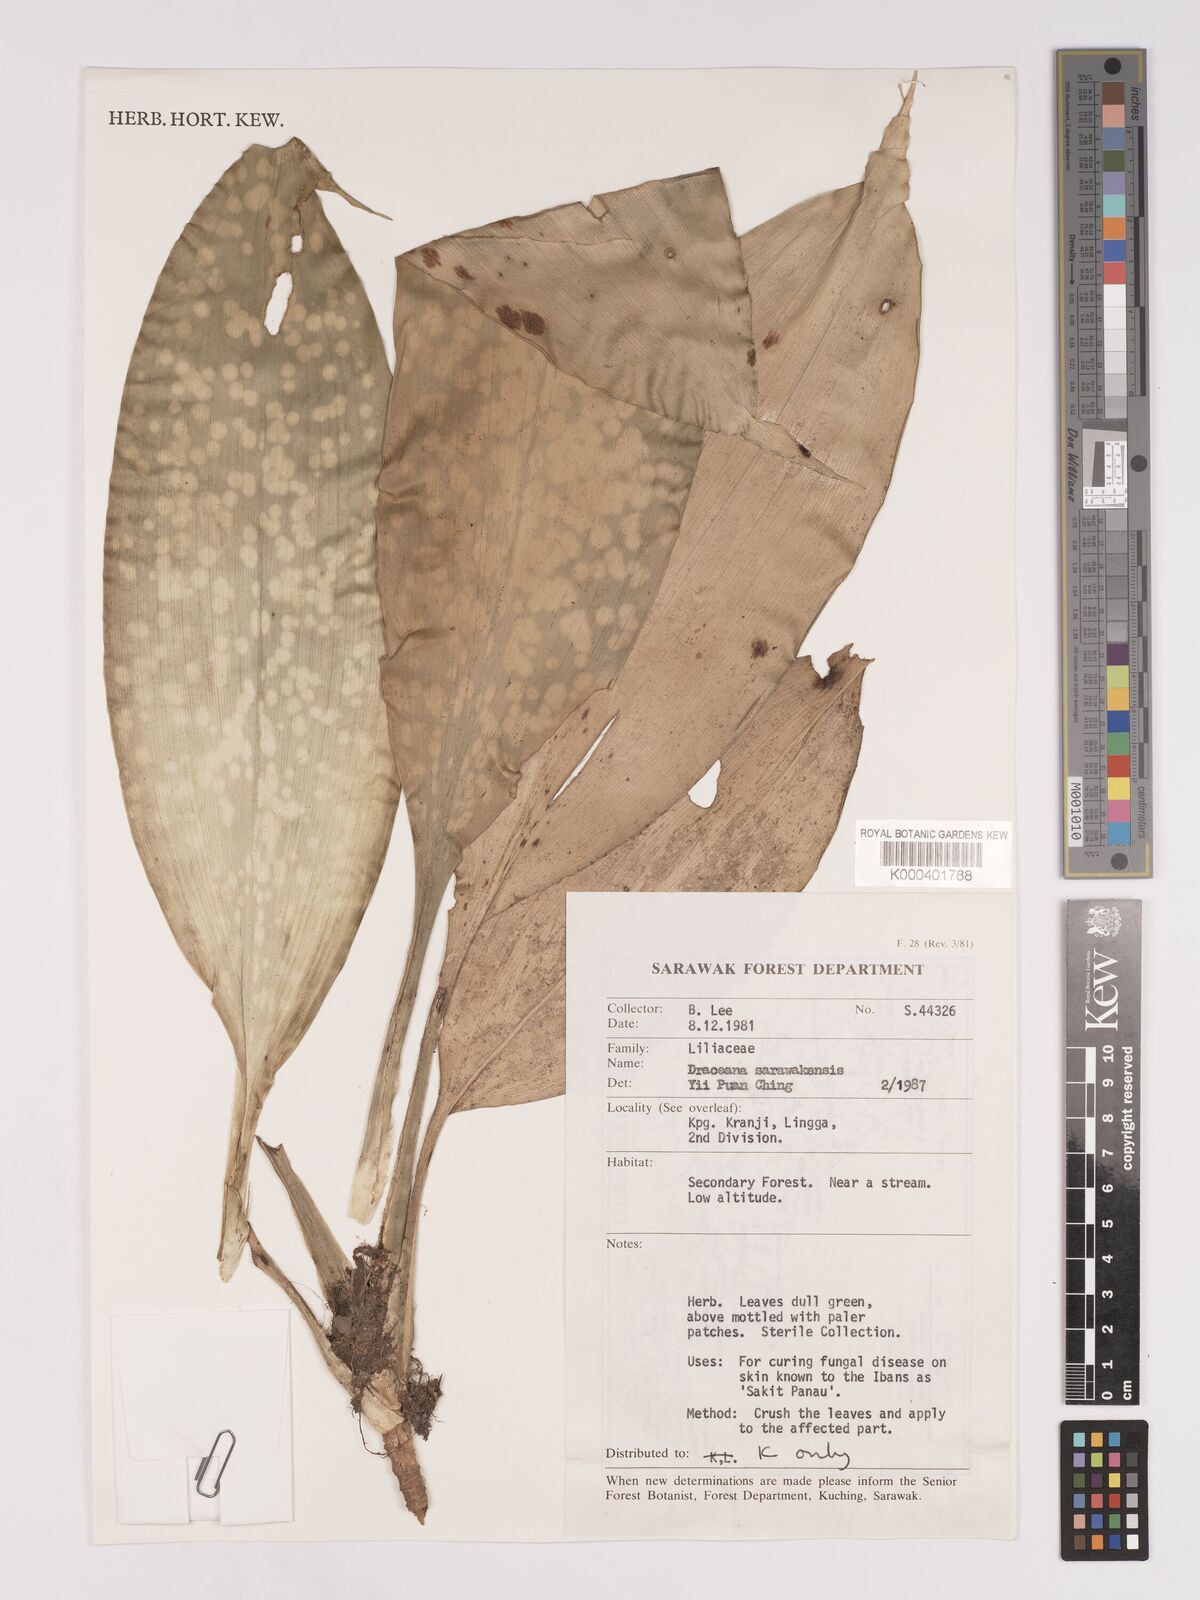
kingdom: Plantae
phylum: Tracheophyta
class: Liliopsida
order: Asparagales
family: Asparagaceae
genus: Dracaena
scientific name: Dracaena sarawakensis
